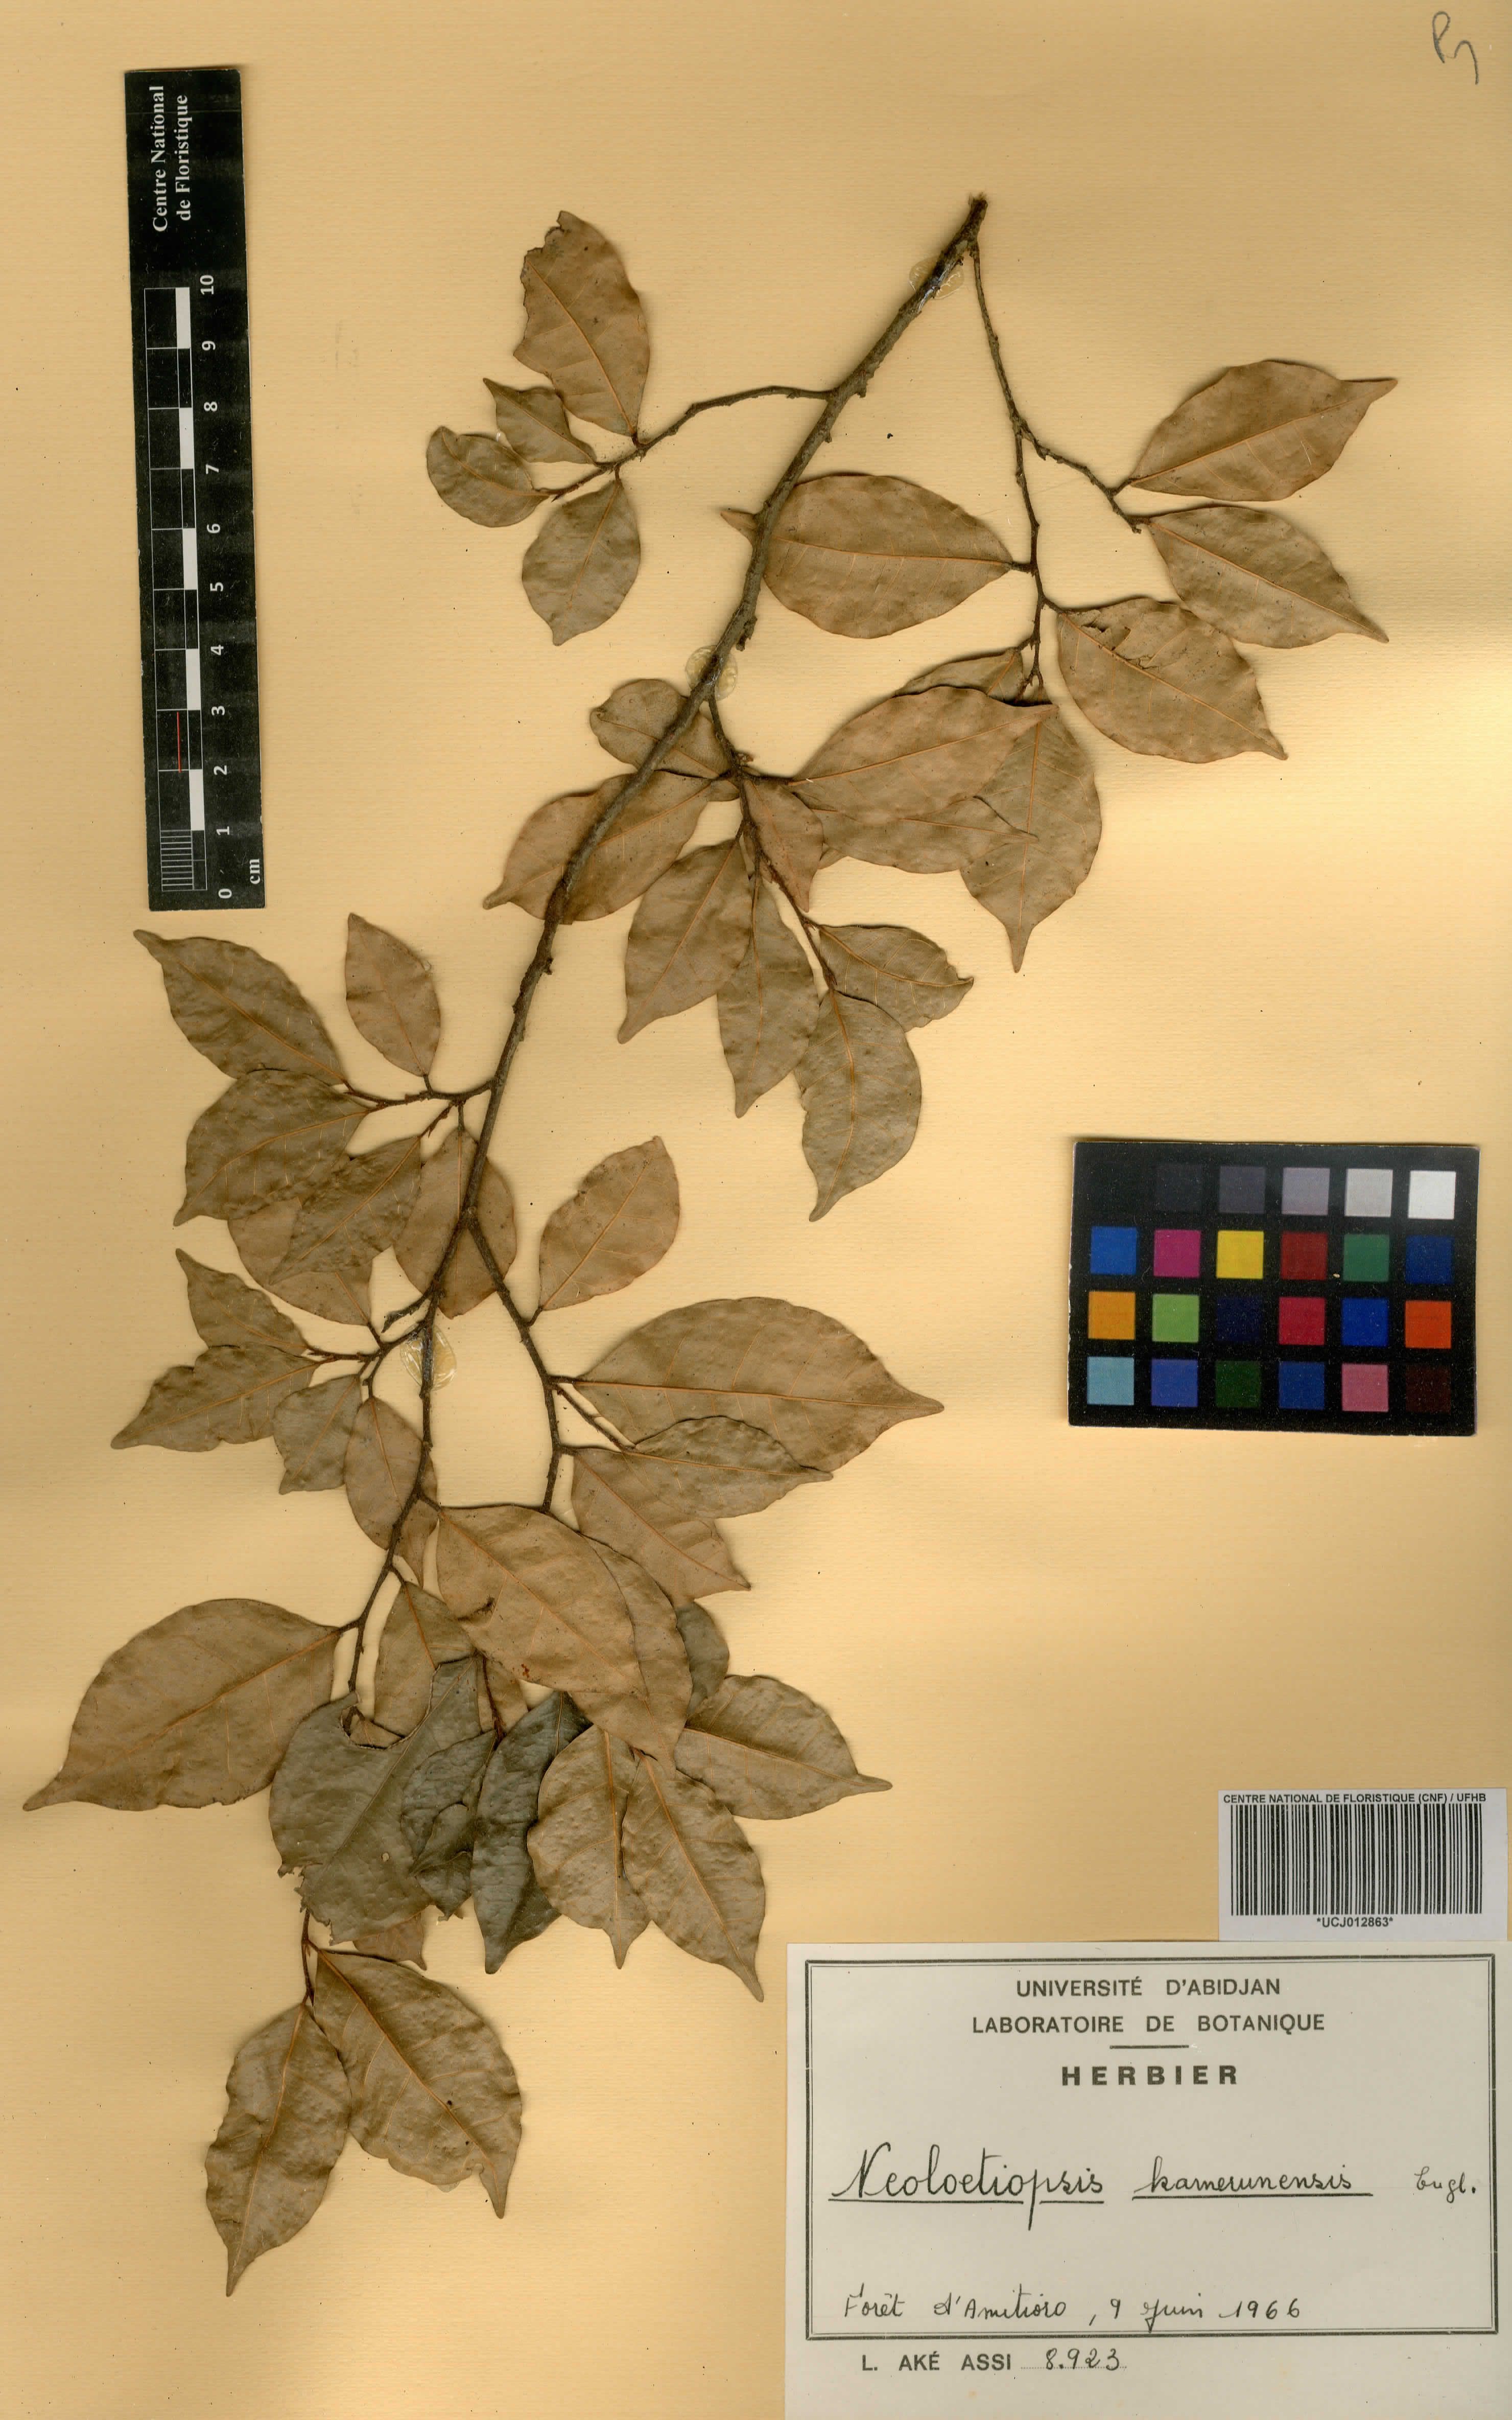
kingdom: Plantae
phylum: Tracheophyta
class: Magnoliopsida
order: Rosales
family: Moraceae
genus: Sloetiopsis
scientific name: Sloetiopsis usambarensis
